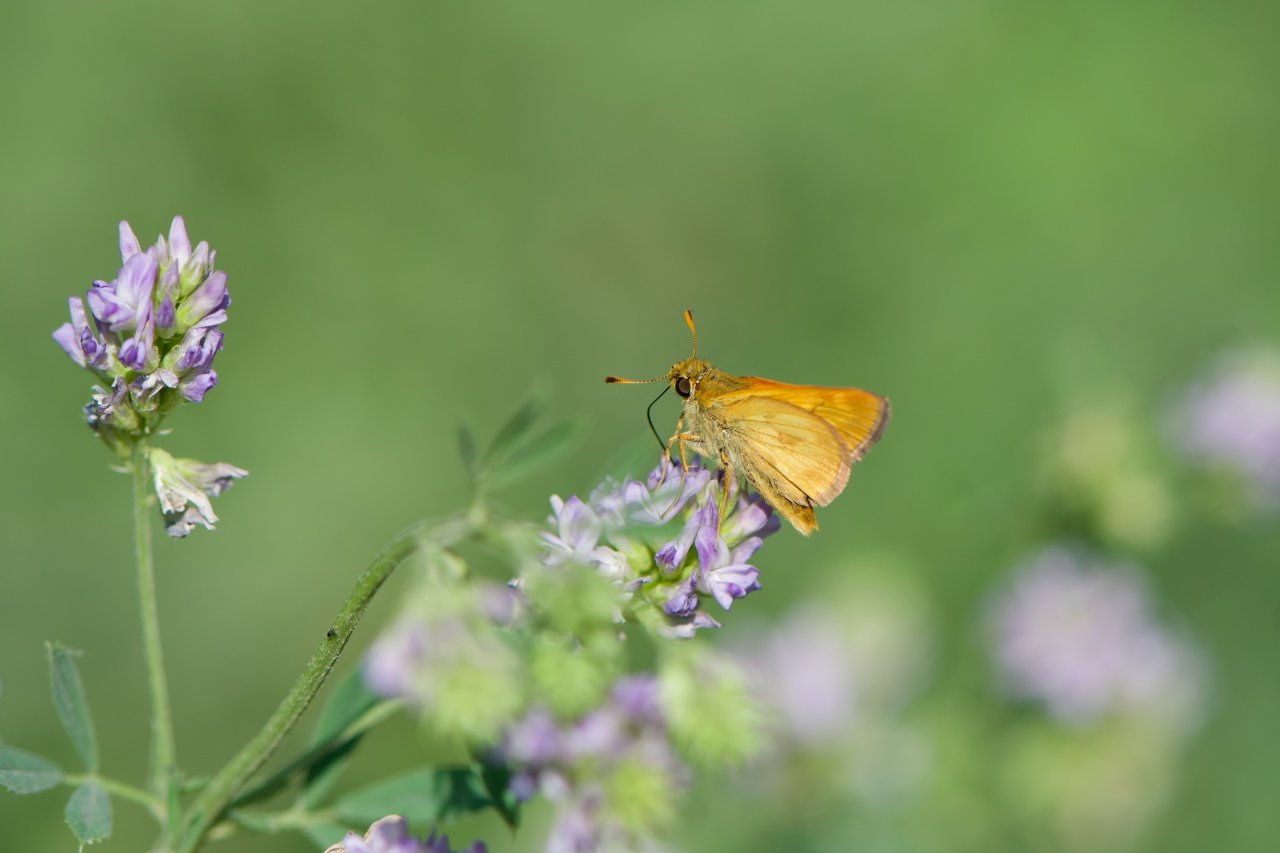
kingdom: Animalia
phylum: Arthropoda
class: Insecta
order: Lepidoptera
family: Hesperiidae
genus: Polites
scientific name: Polites
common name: Long Dash Skipper
